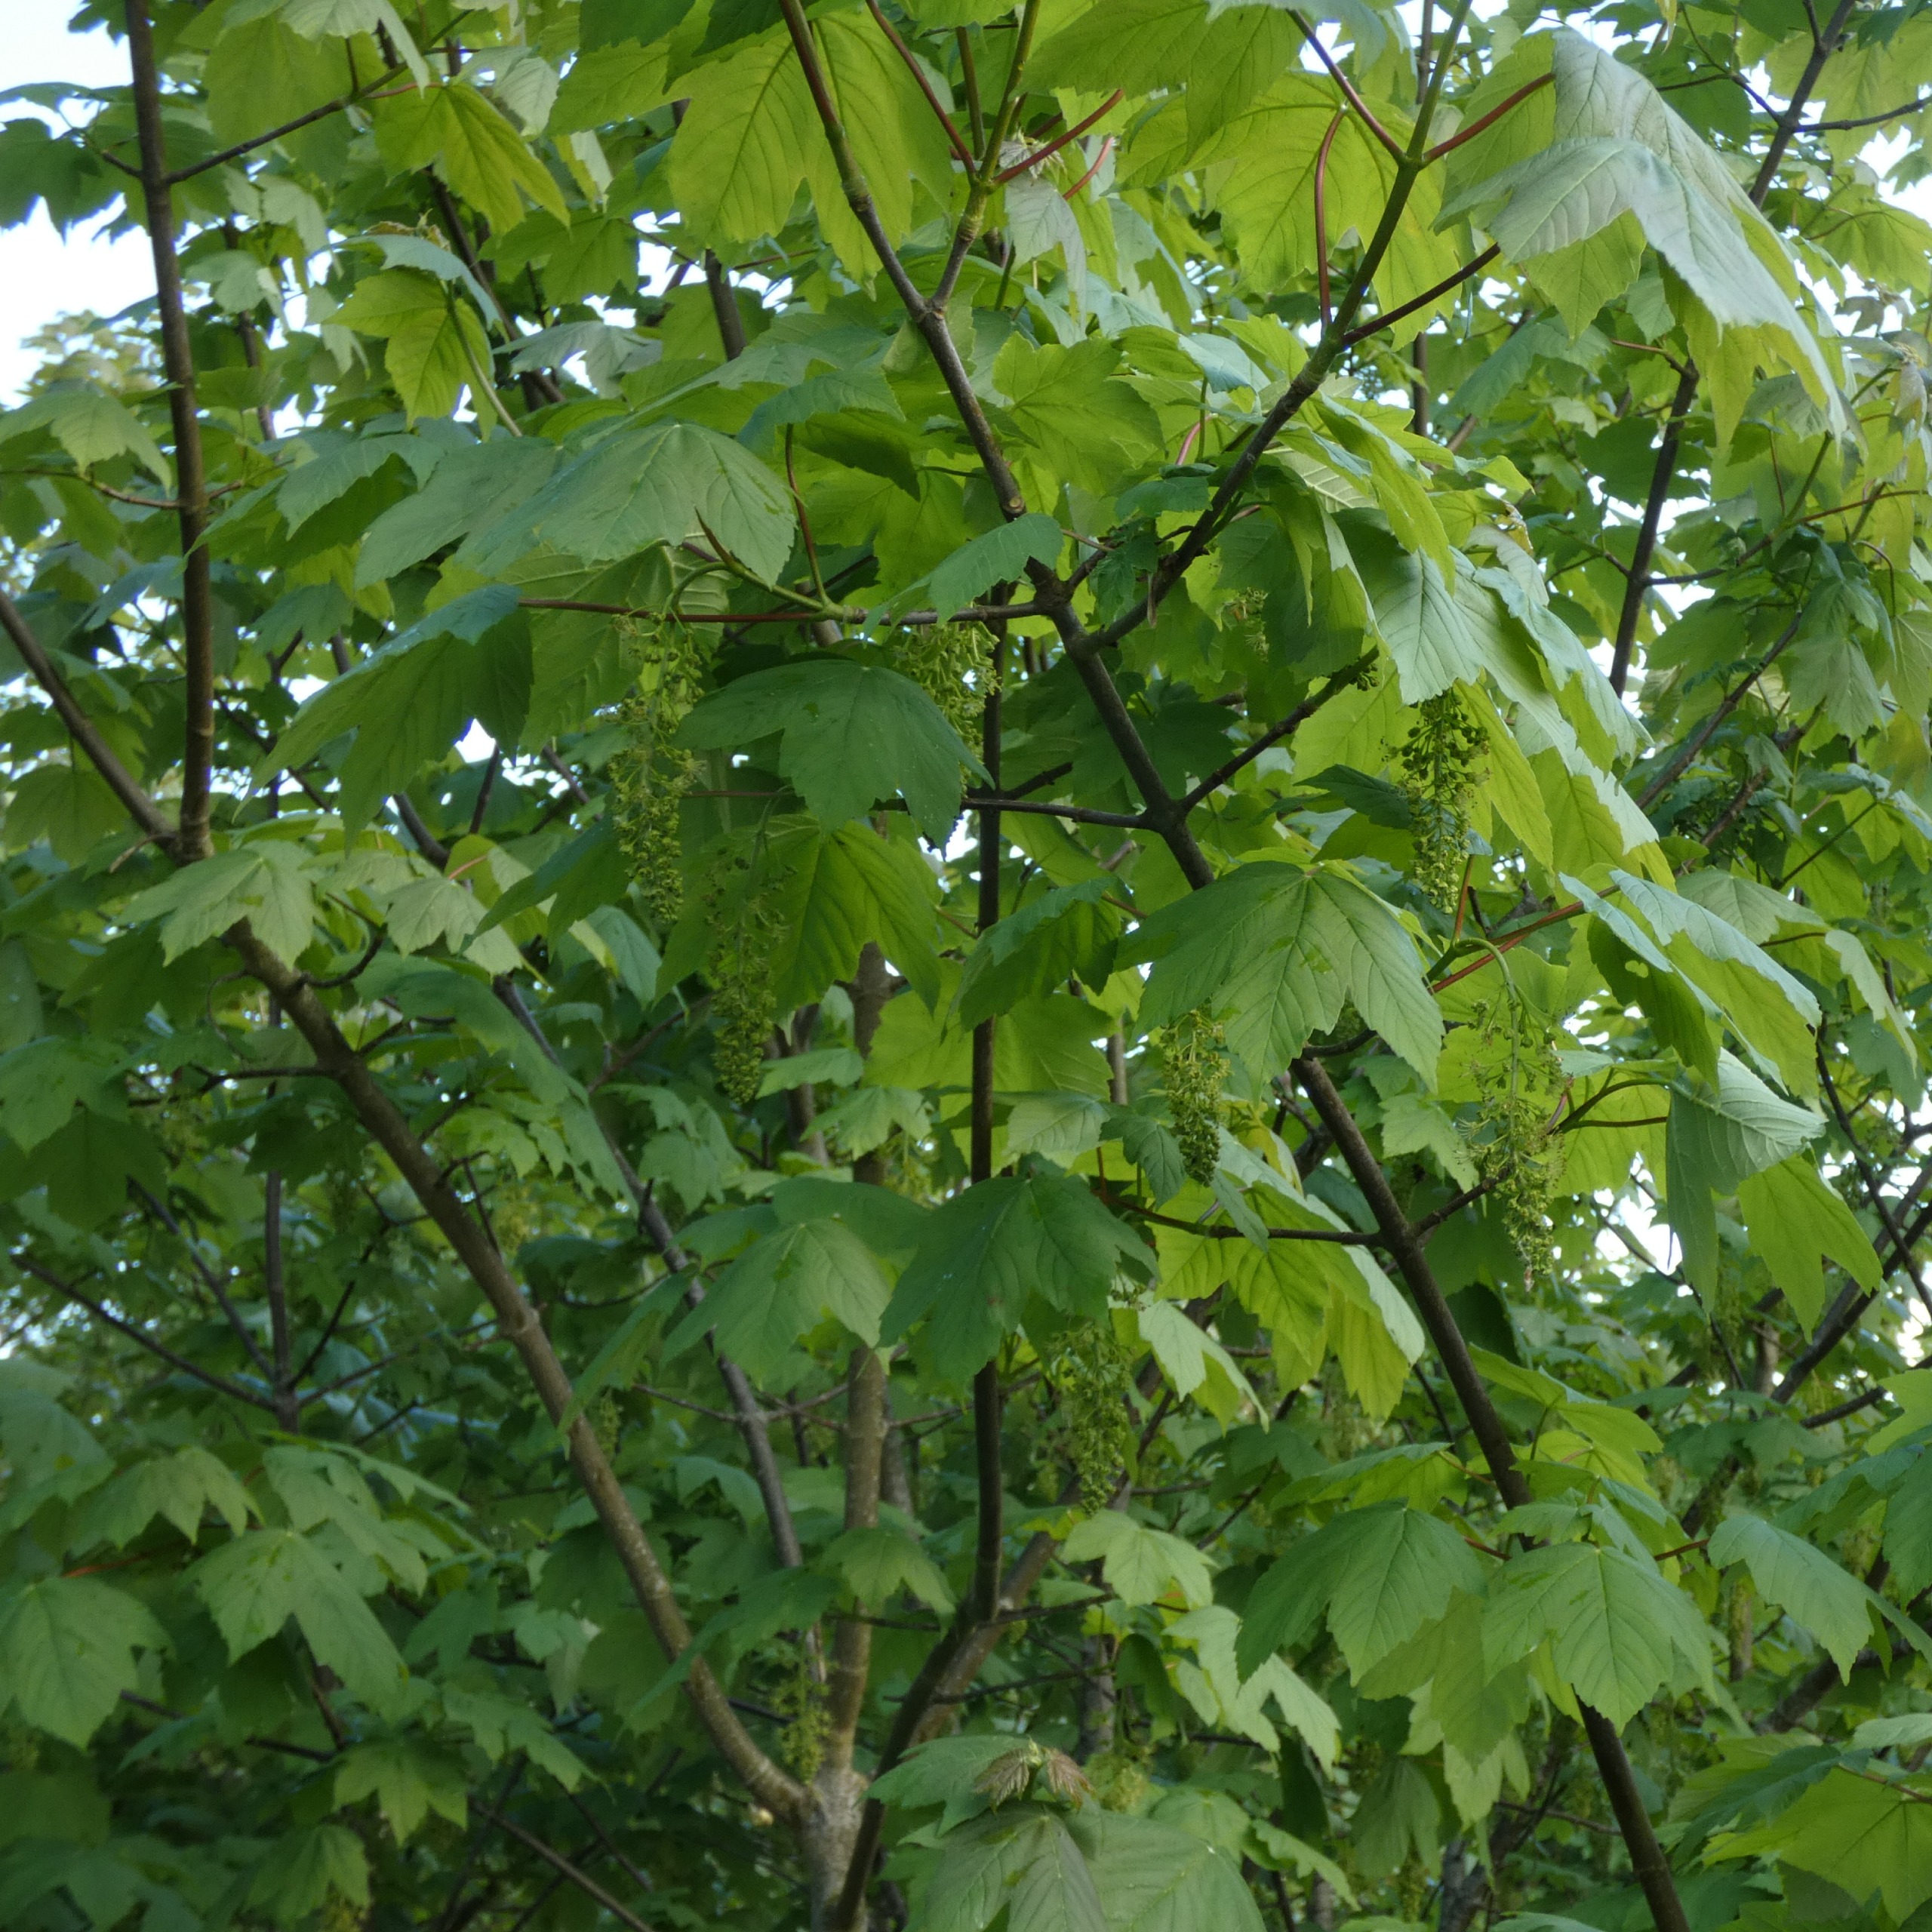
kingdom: Plantae
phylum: Tracheophyta
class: Magnoliopsida
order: Sapindales
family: Sapindaceae
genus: Acer
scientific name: Acer pseudoplatanus
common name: Ahorn
